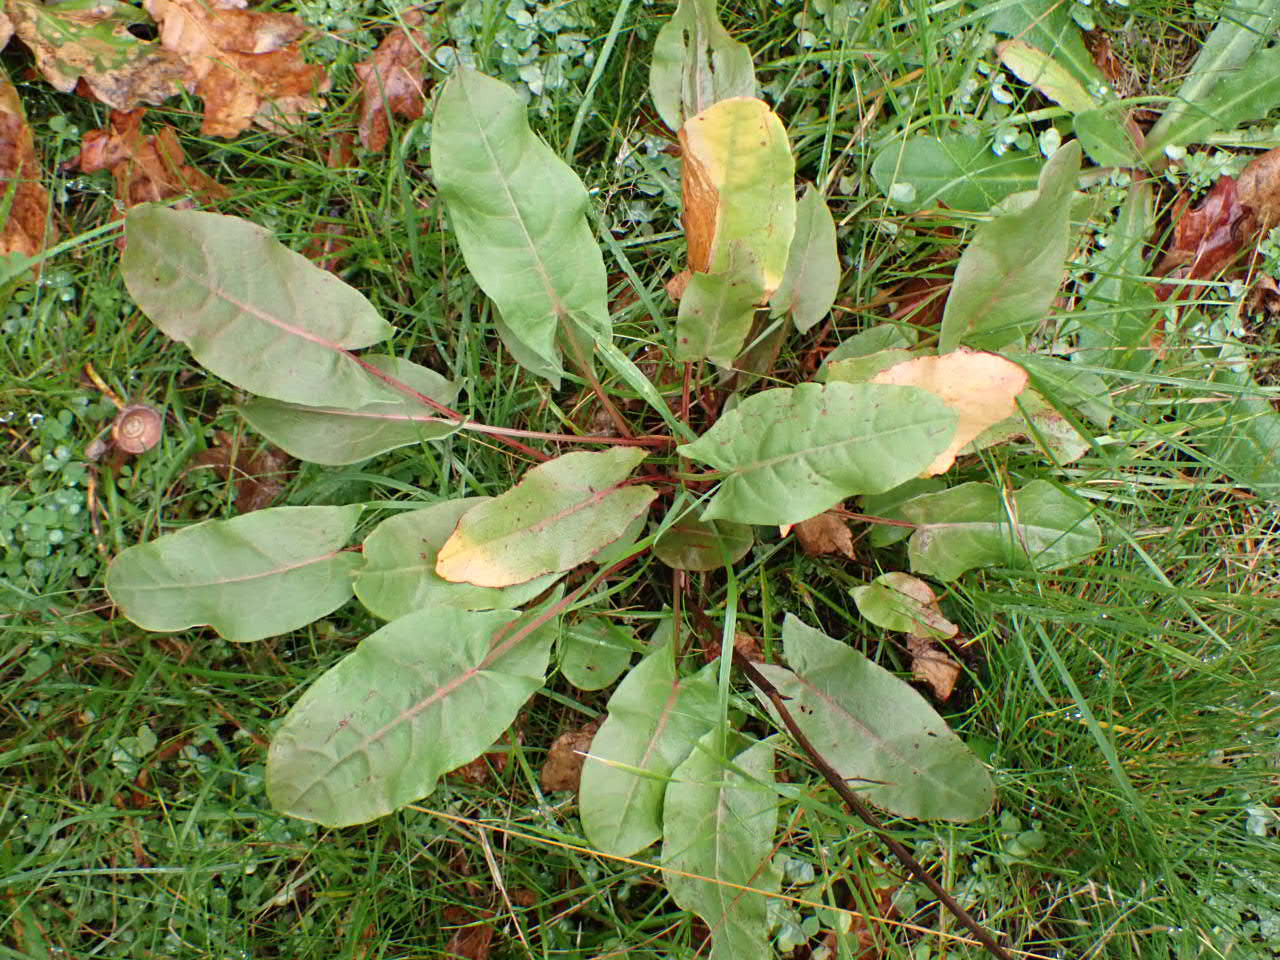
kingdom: Plantae
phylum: Tracheophyta
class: Magnoliopsida
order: Caryophyllales
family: Polygonaceae
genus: Rumex
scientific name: Rumex thyrsiflorus
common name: Dusk-syre
